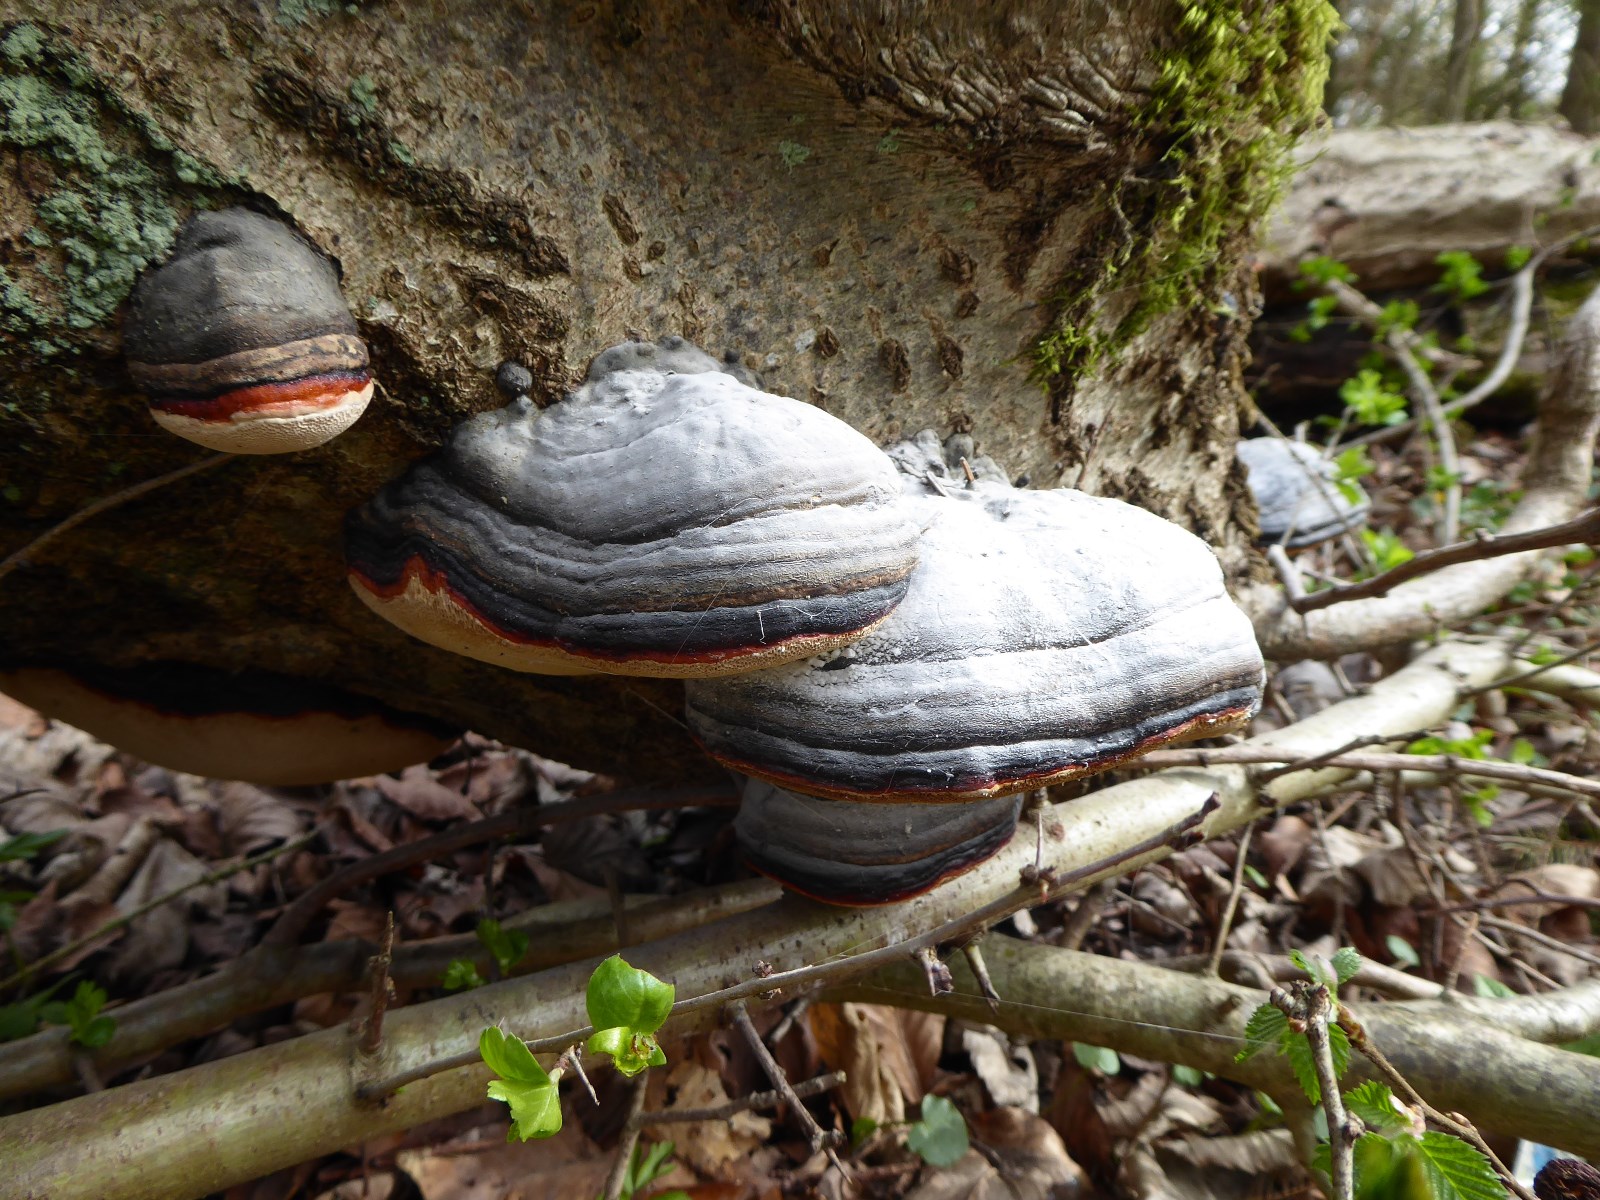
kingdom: Fungi
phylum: Basidiomycota
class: Agaricomycetes
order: Polyporales
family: Fomitopsidaceae
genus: Fomitopsis
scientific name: Fomitopsis pinicola
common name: randbæltet hovporesvamp
